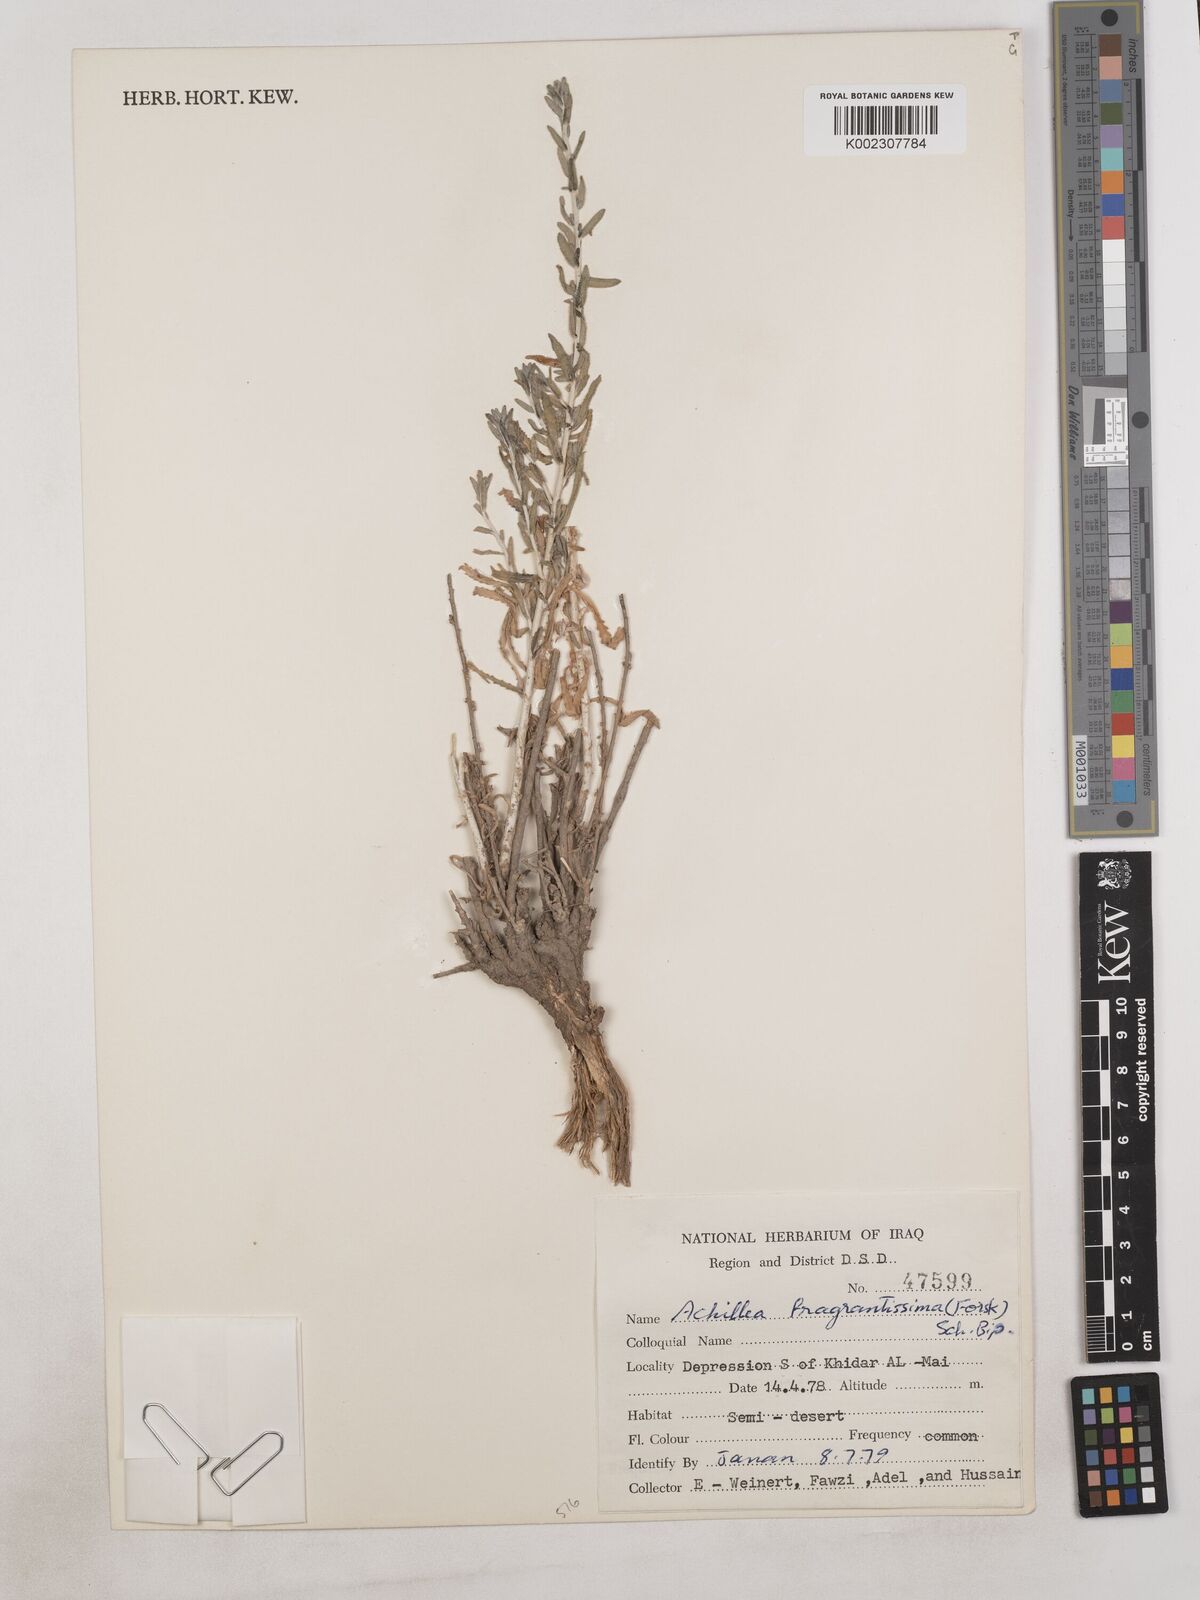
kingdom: Plantae
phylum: Tracheophyta
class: Magnoliopsida
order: Asterales
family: Asteraceae
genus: Achillea
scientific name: Achillea fragrantissima
